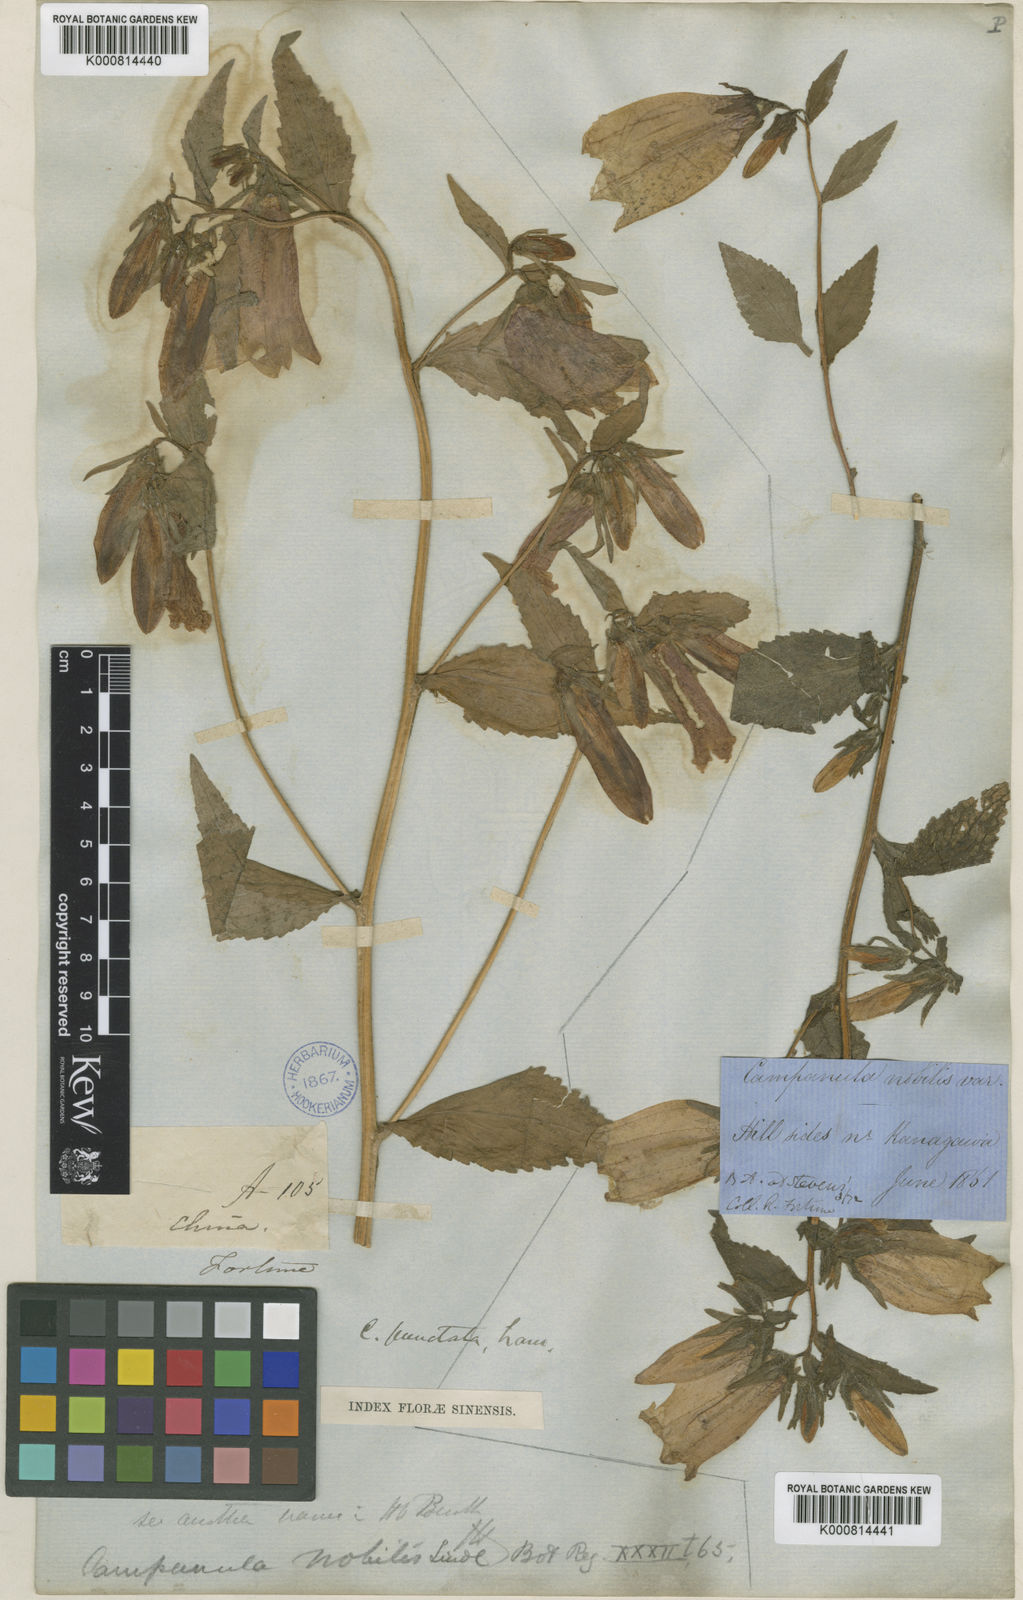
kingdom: Plantae
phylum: Tracheophyta
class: Magnoliopsida
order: Asterales
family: Campanulaceae
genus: Campanula
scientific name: Campanula punctata
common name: Spotted bellflower
